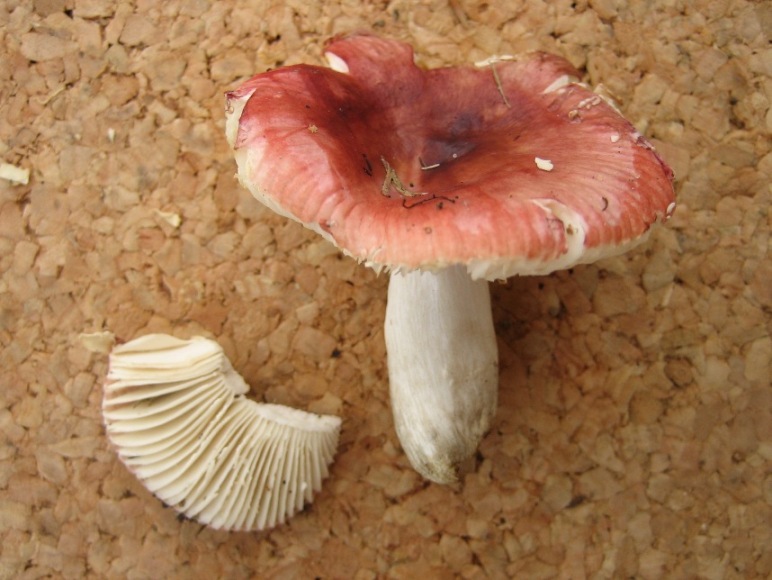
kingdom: Fungi
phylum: Basidiomycota
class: Agaricomycetes
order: Russulales
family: Russulaceae
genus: Russula
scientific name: Russula puellula
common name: gulnende skørhat
